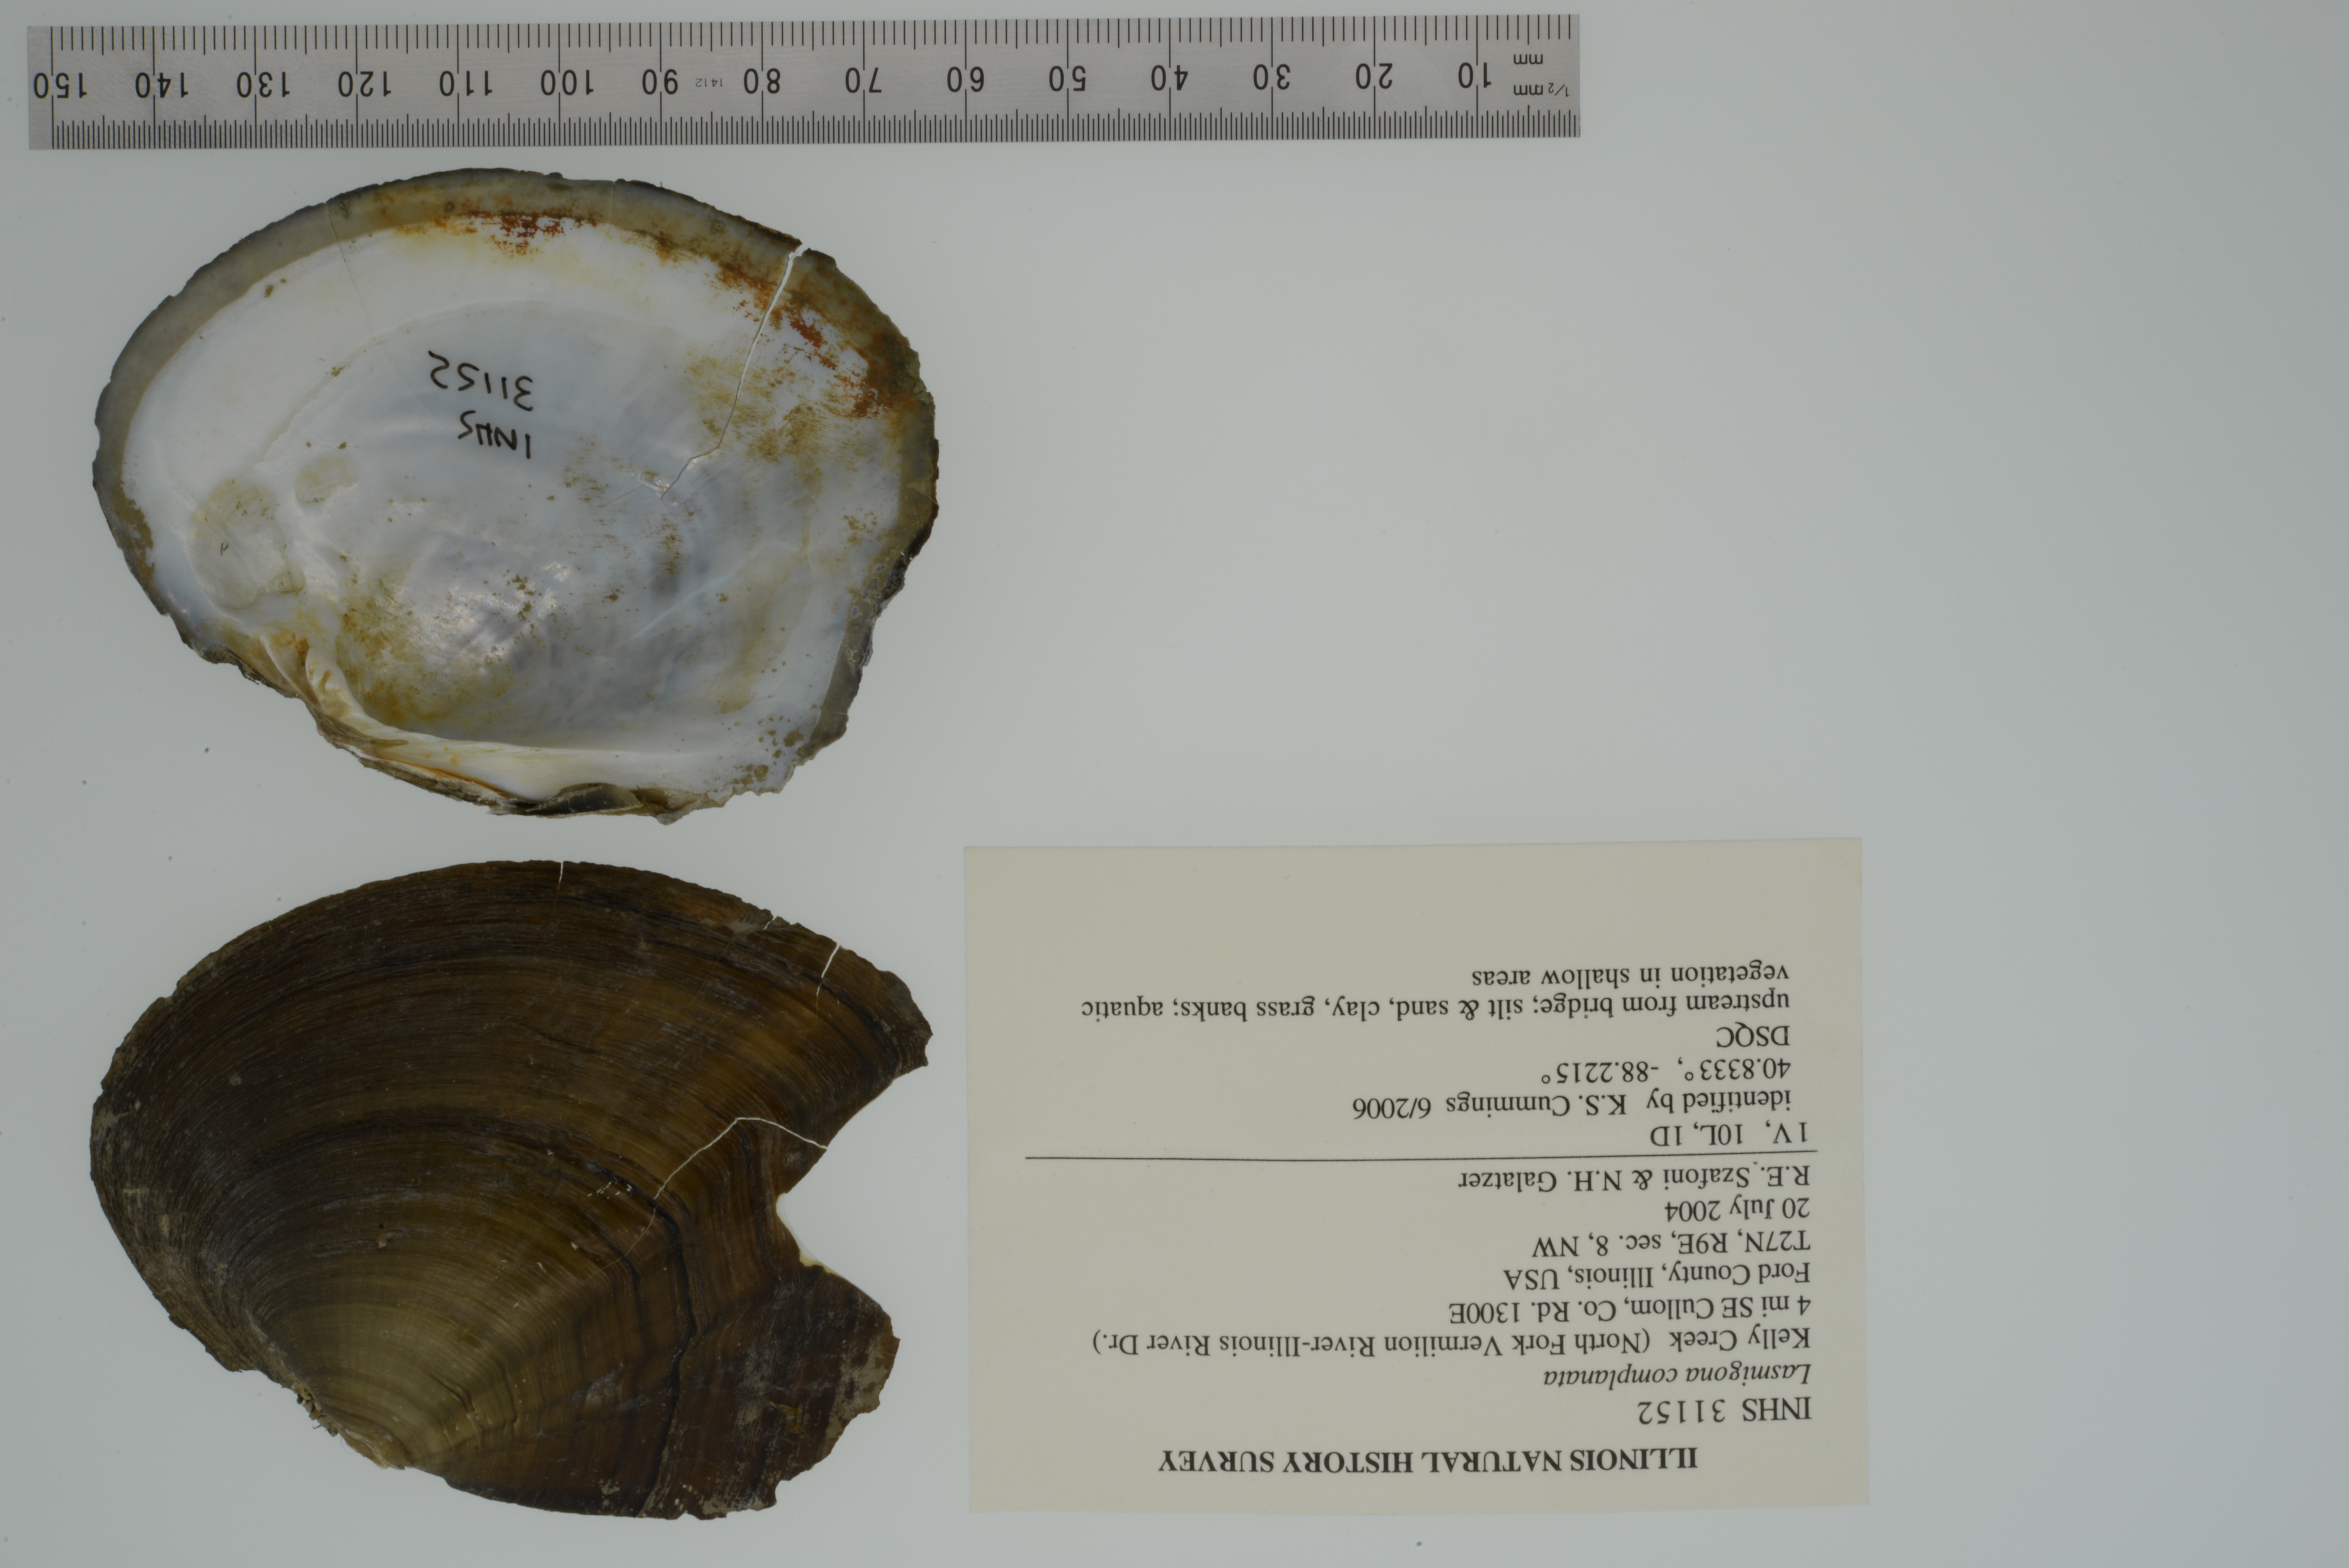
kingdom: Animalia
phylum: Mollusca
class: Bivalvia
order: Unionida
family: Unionidae
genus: Lasmigona
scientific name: Lasmigona complanata
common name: White heelsplitter
